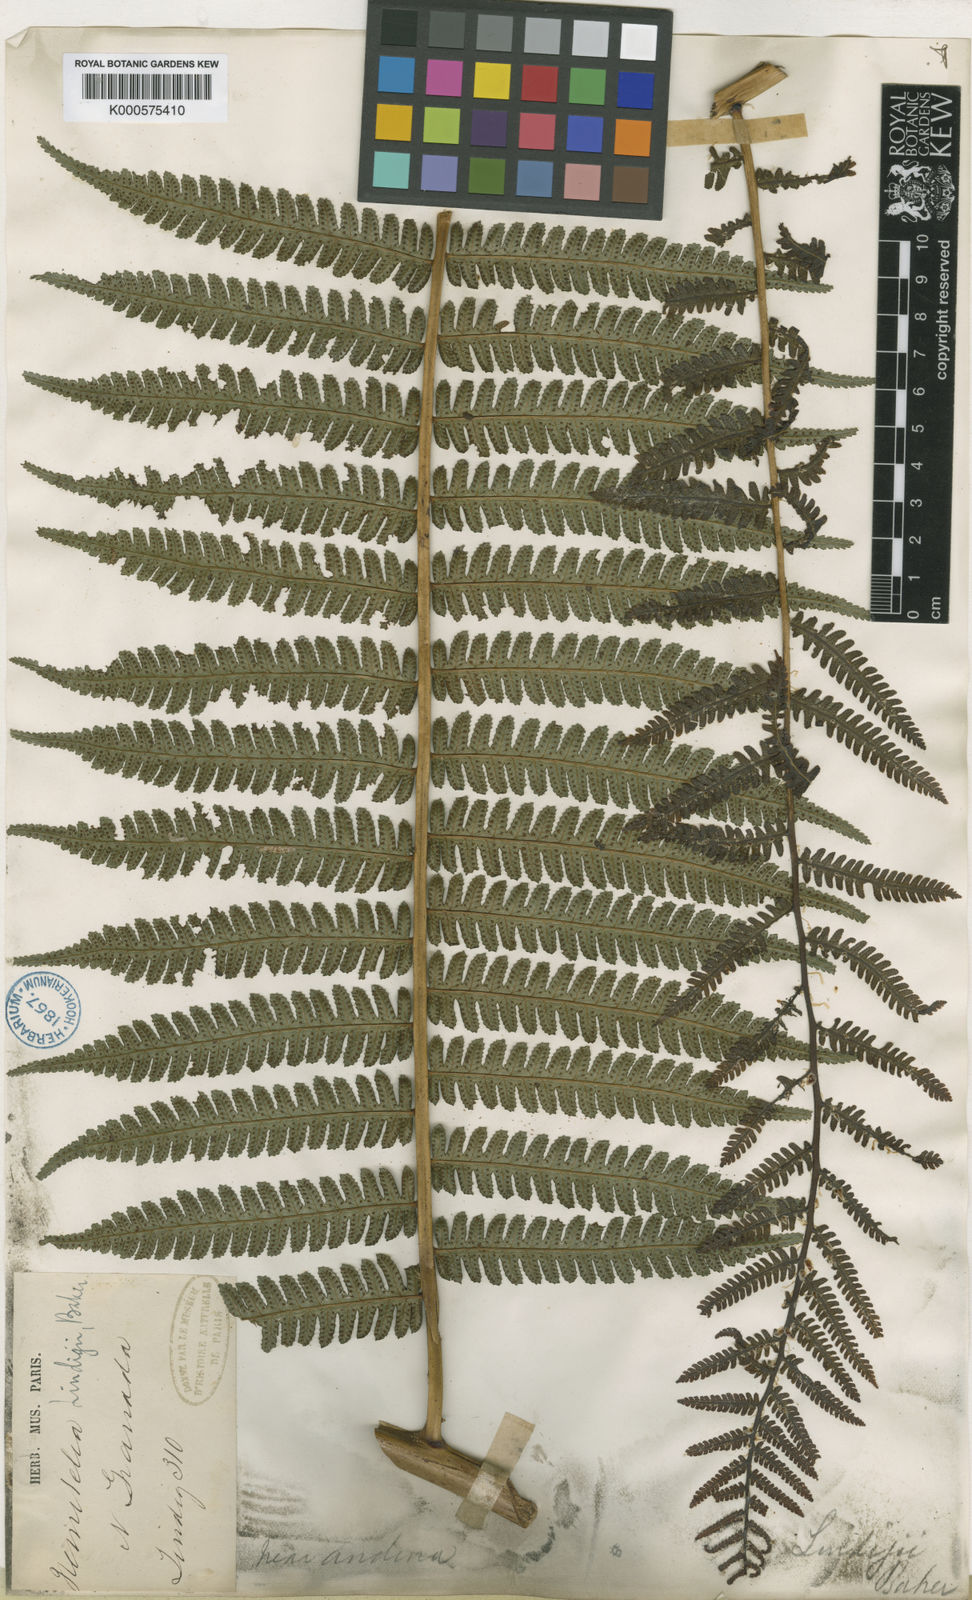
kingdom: Plantae
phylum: Tracheophyta
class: Polypodiopsida
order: Cyatheales
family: Cyatheaceae
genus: Cyathea
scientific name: Cyathea multiflora
